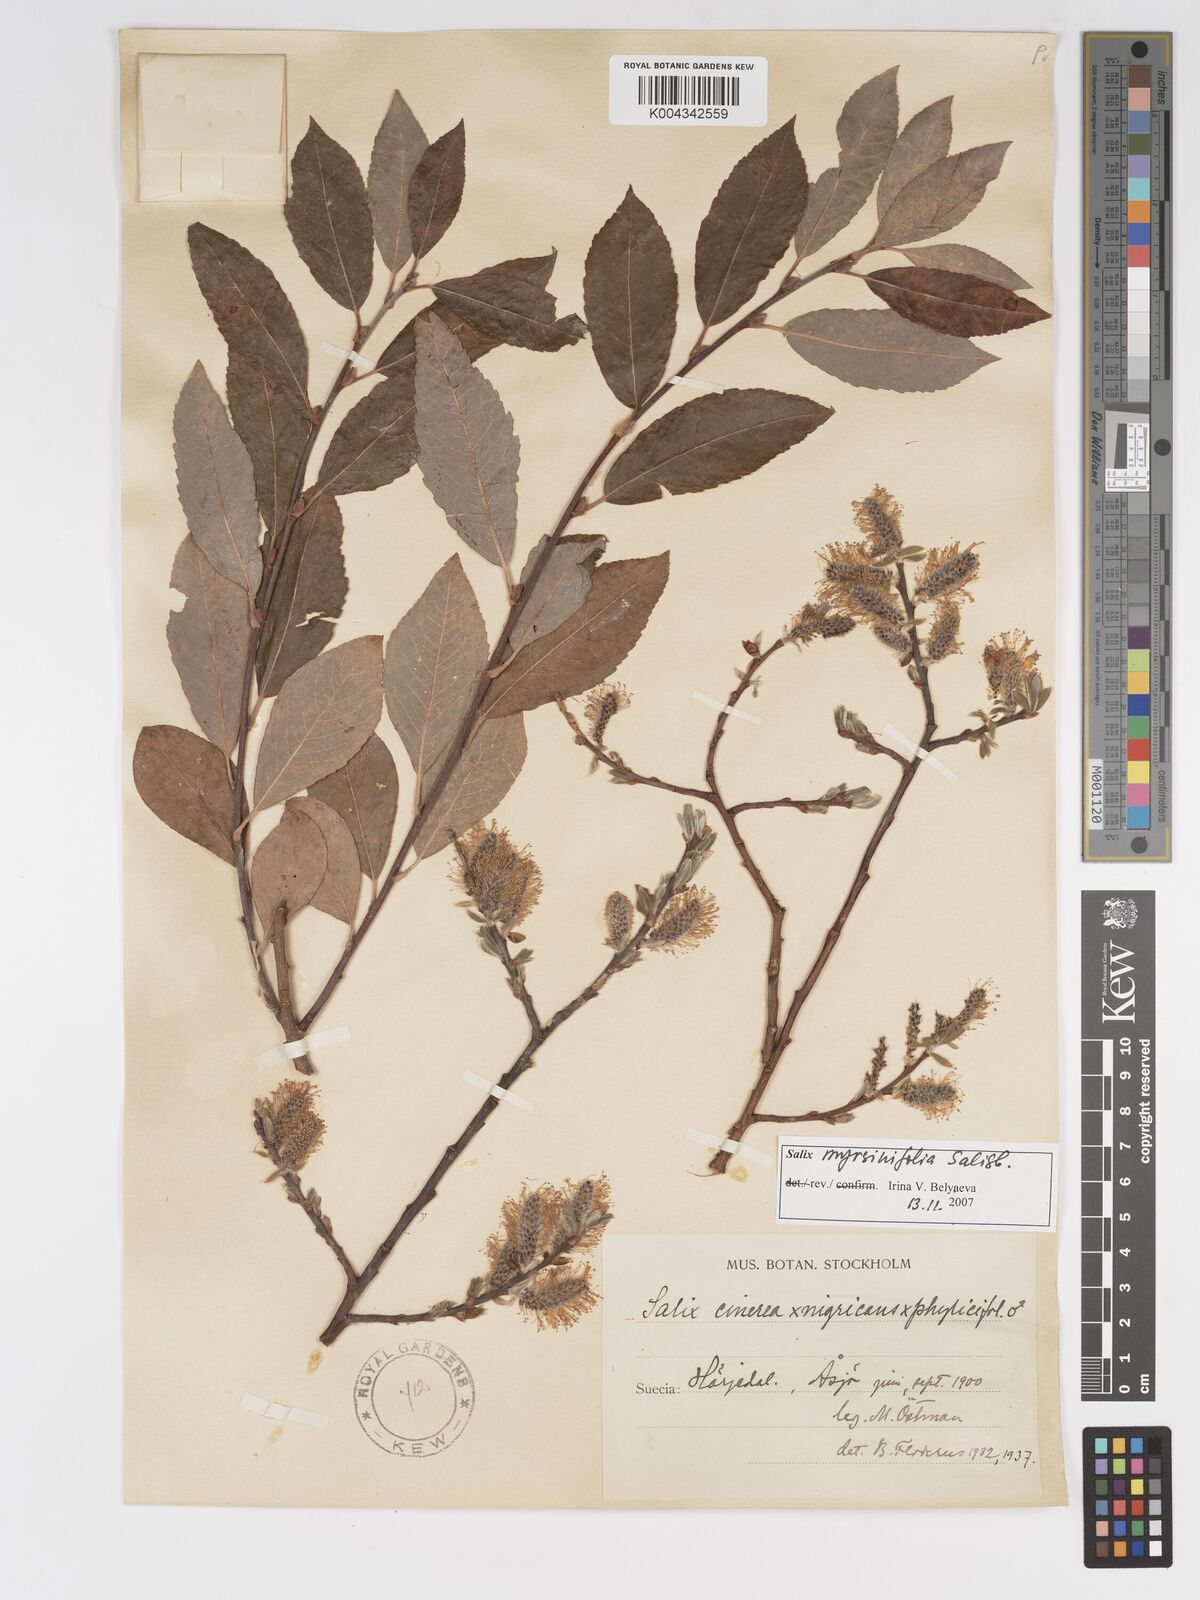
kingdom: Plantae
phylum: Tracheophyta
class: Magnoliopsida
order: Malpighiales
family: Salicaceae
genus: Salix
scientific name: Salix cinerea
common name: Common sallow
